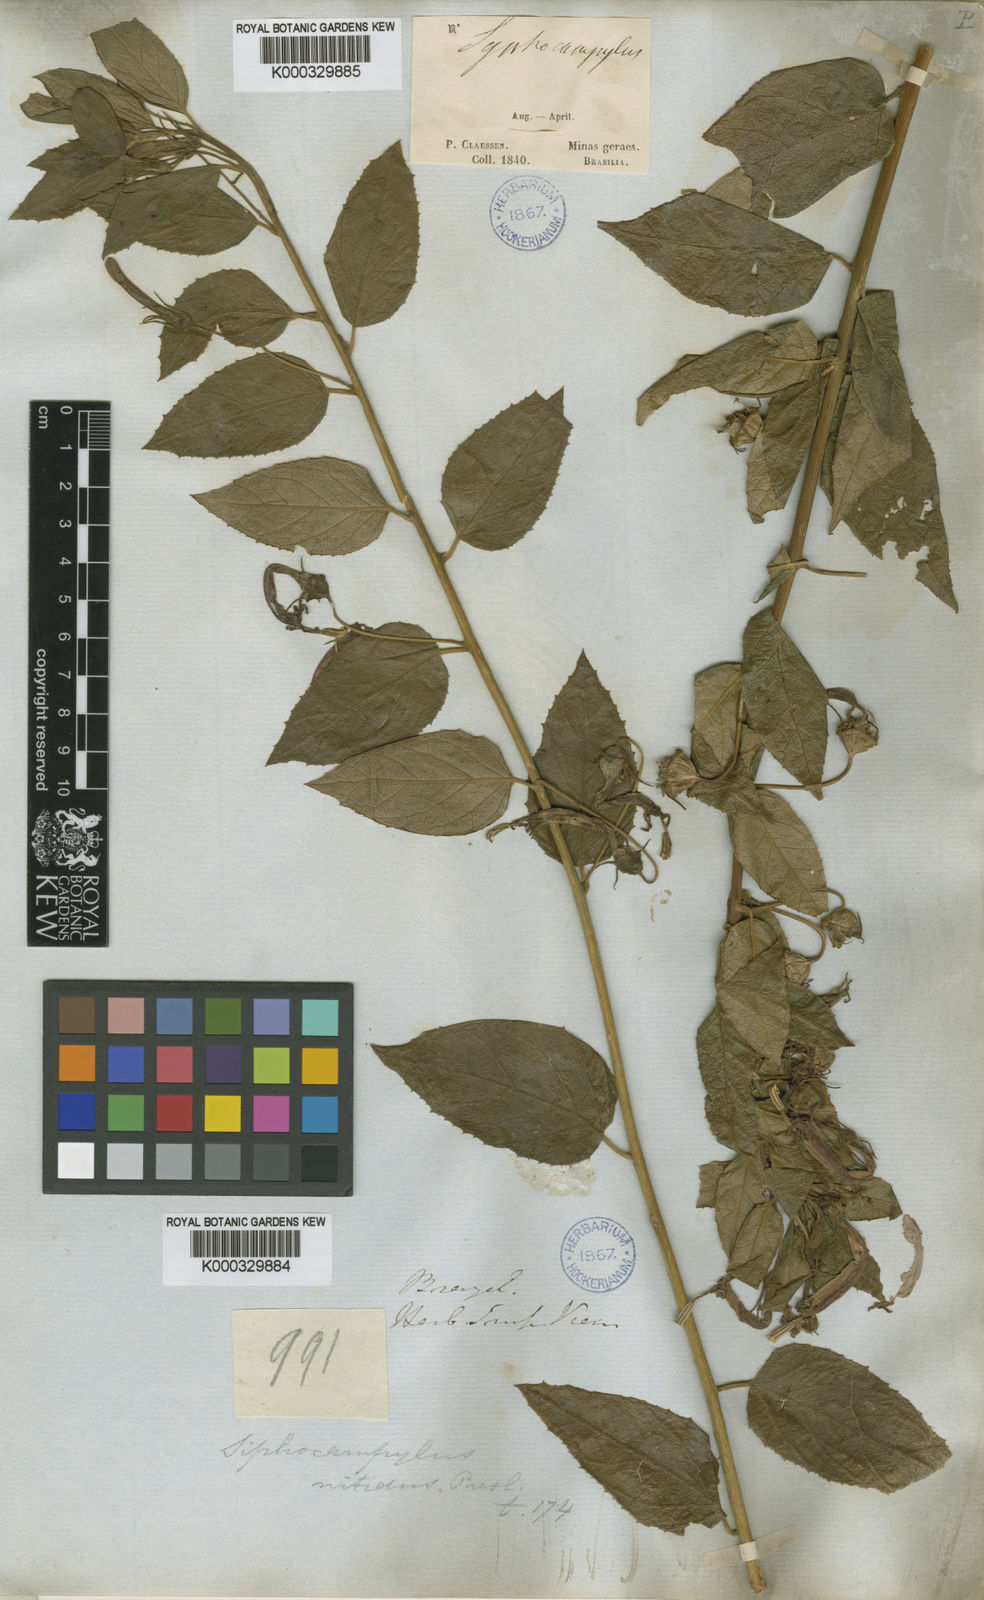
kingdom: Plantae
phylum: Tracheophyta
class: Magnoliopsida
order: Asterales
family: Campanulaceae
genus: Siphocampylus
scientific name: Siphocampylus nitidus
